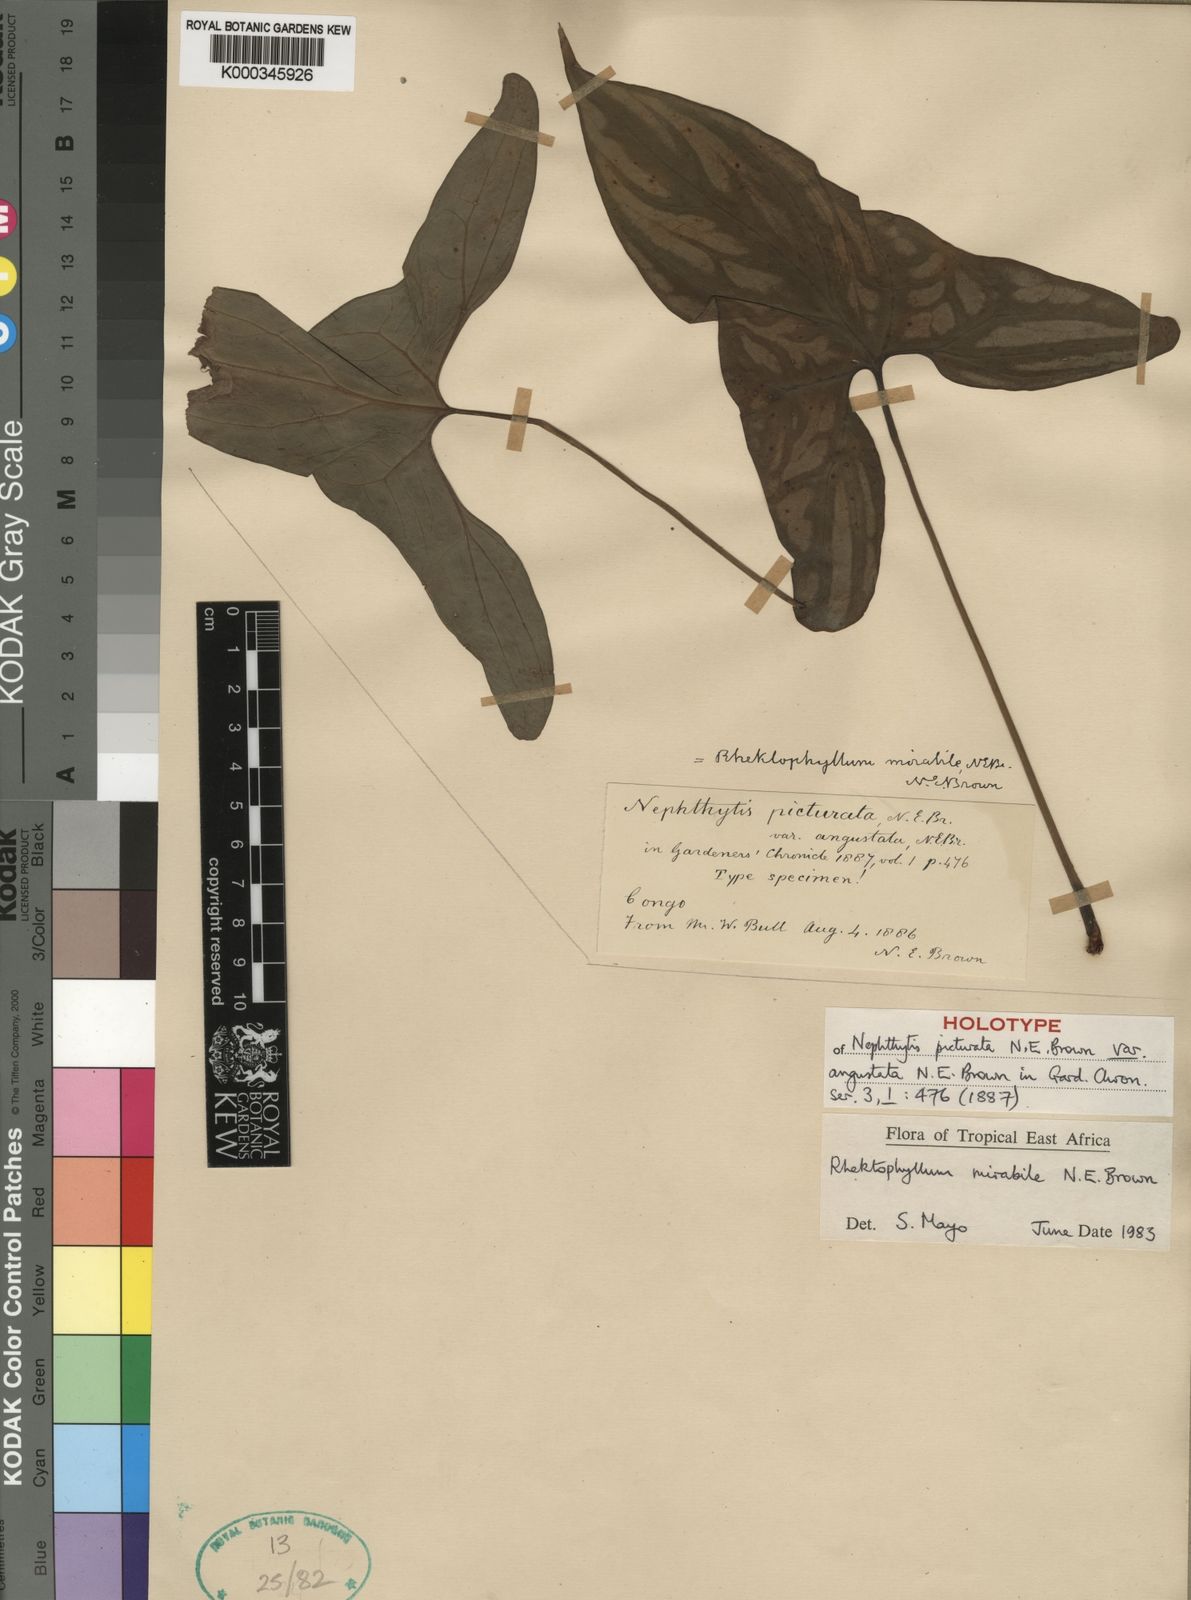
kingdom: Plantae
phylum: Tracheophyta
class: Liliopsida
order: Alismatales
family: Araceae
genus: Cercestis
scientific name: Cercestis mirabilis
